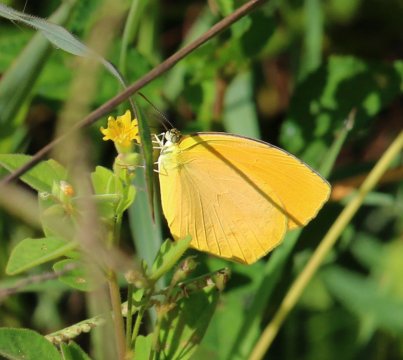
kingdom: Animalia
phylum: Arthropoda
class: Insecta
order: Lepidoptera
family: Pieridae
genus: Pyrisitia
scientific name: Pyrisitia proterpia
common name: Tailed Orange
